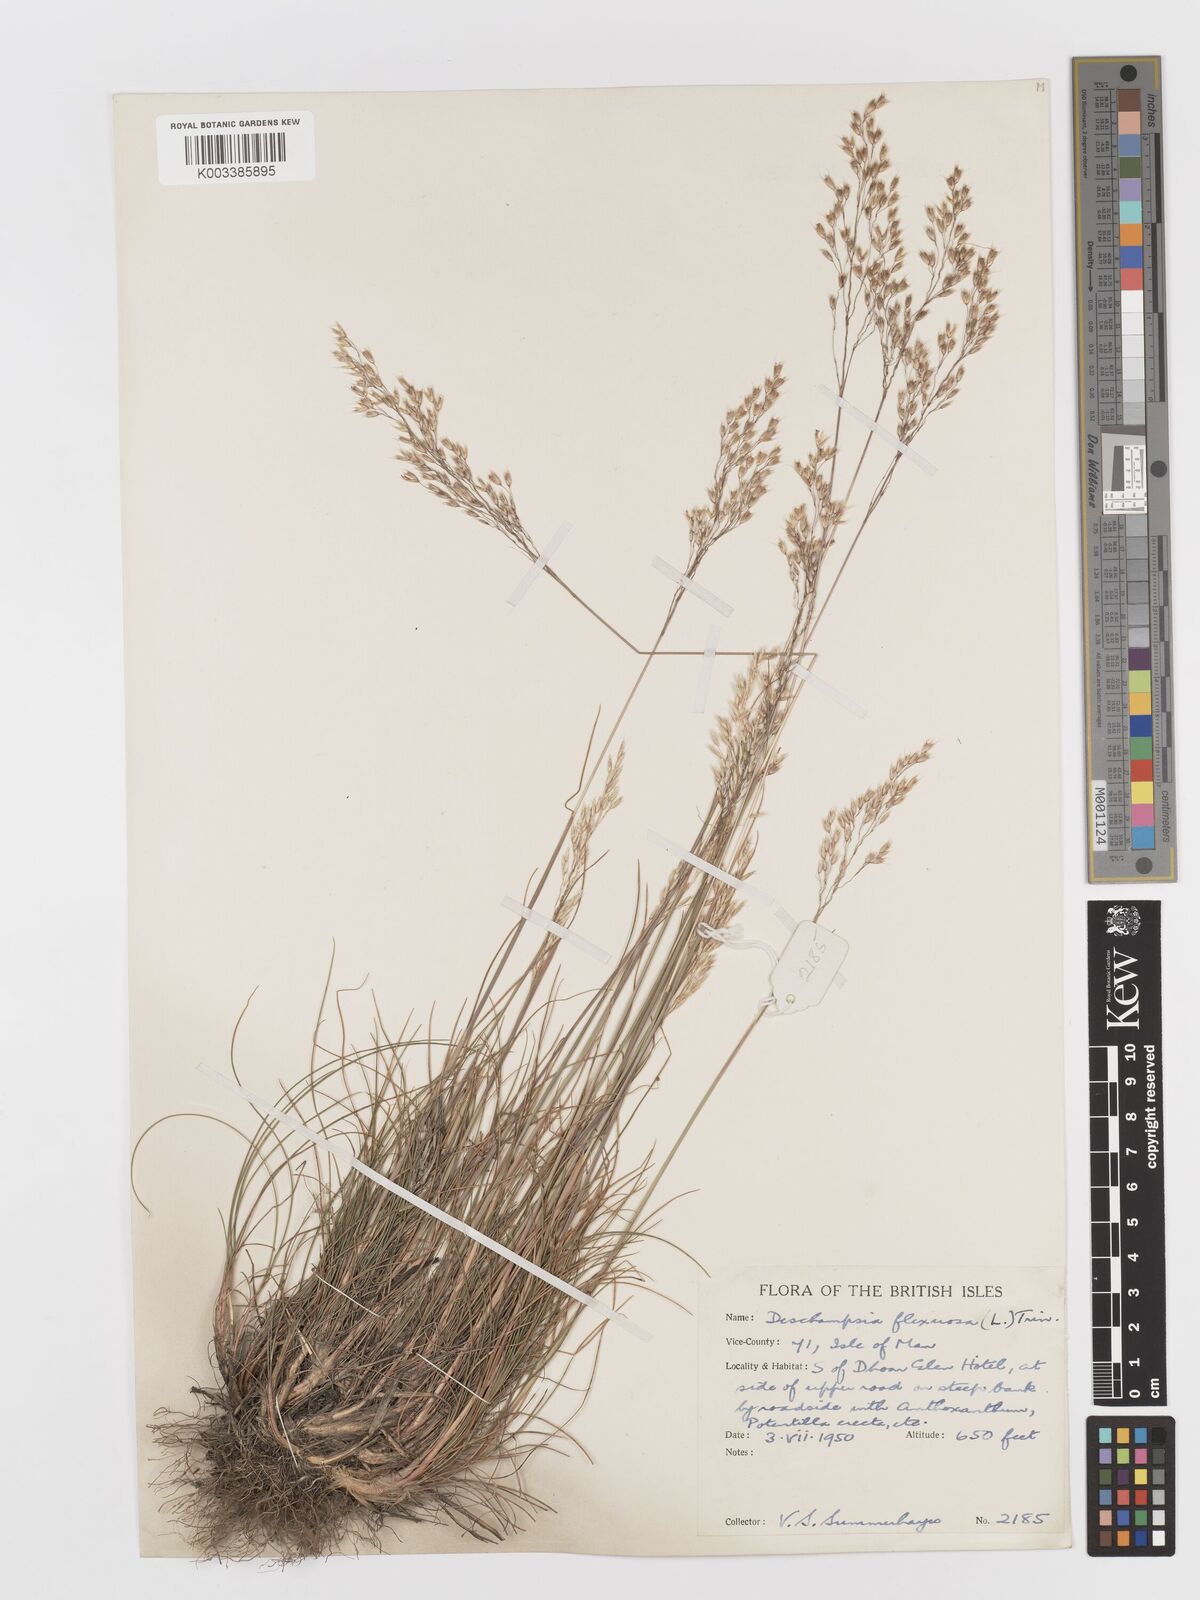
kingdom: Plantae
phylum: Tracheophyta
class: Liliopsida
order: Poales
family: Poaceae
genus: Avenella
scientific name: Avenella flexuosa
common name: Wavy hairgrass
